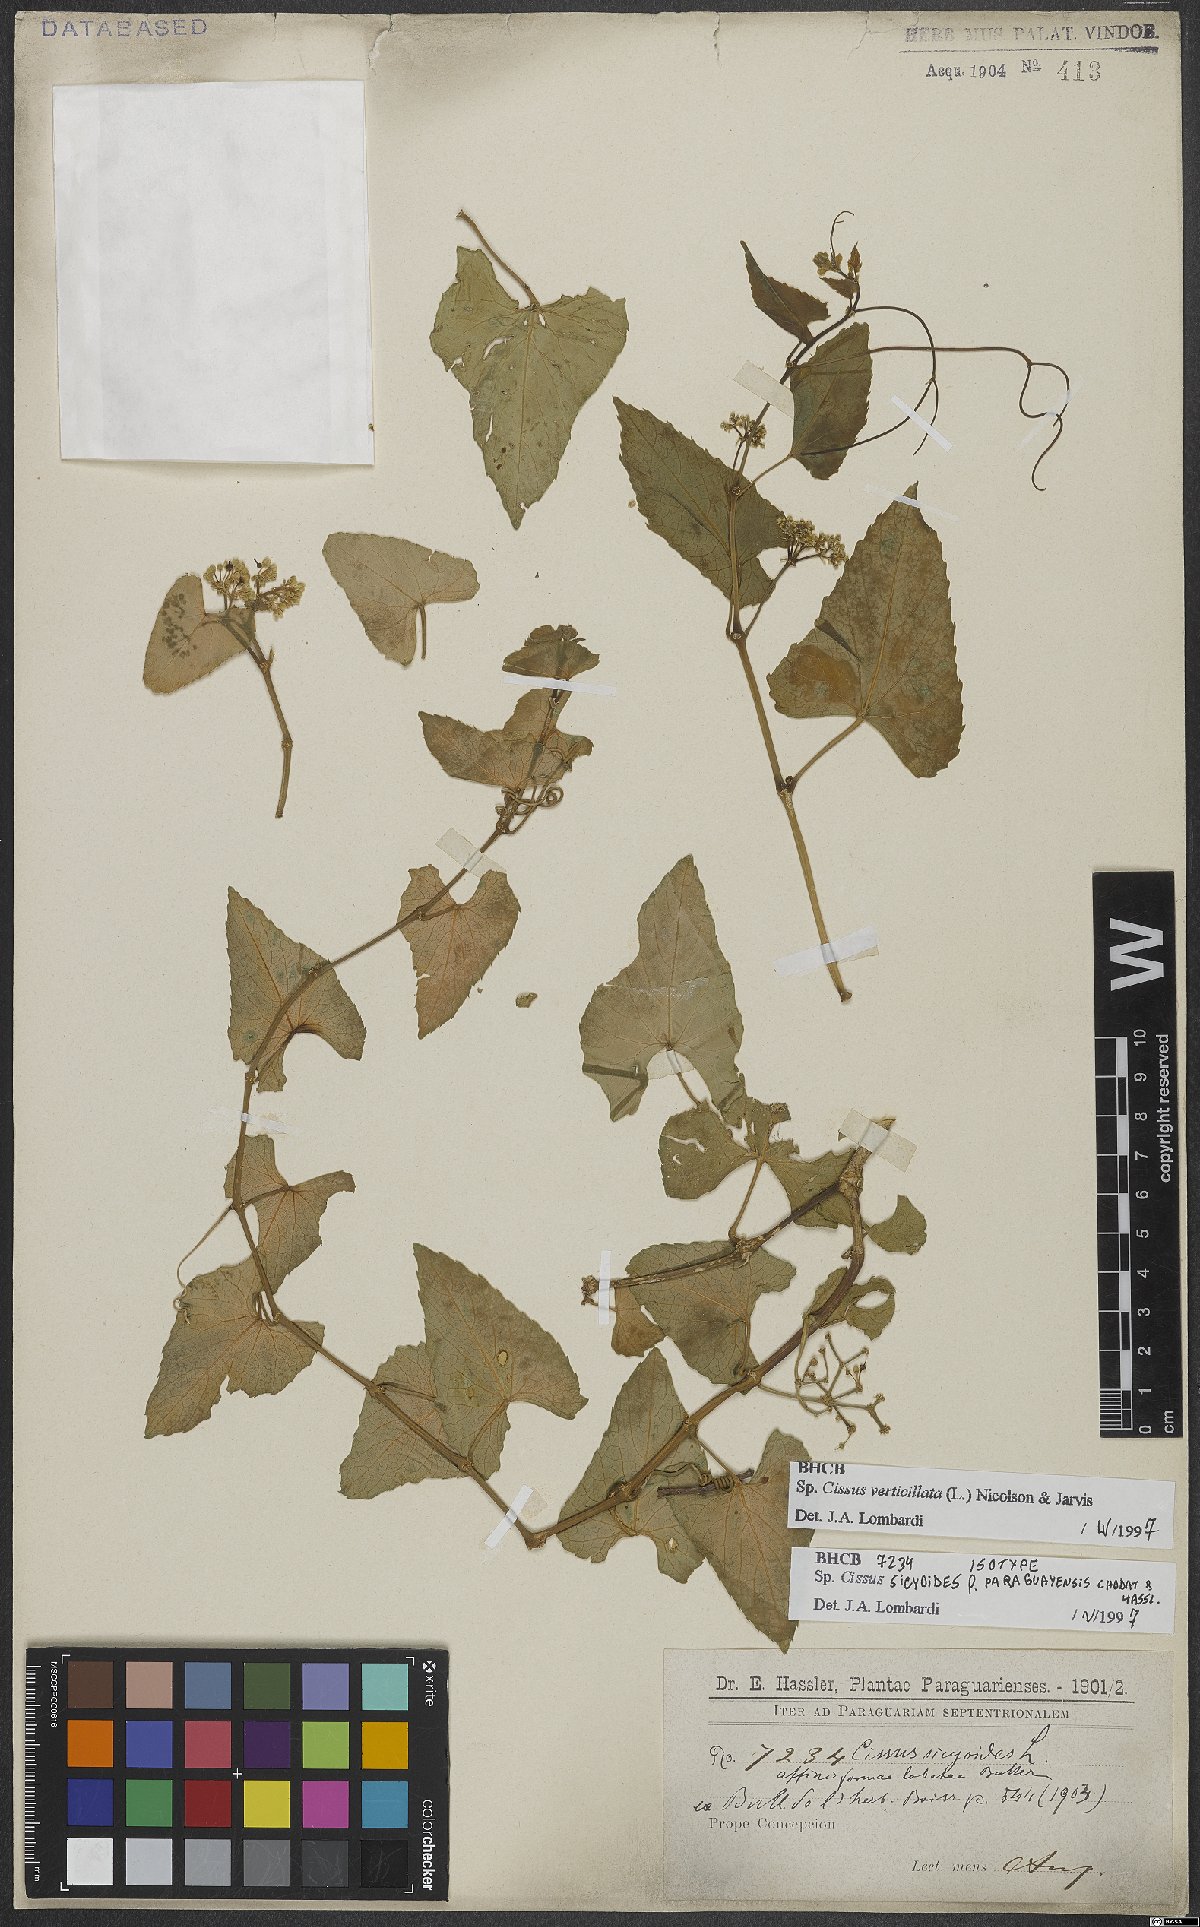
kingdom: Plantae
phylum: Tracheophyta
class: Magnoliopsida
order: Vitales
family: Vitaceae
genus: Cissus
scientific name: Cissus verticillata
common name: Princess vine
